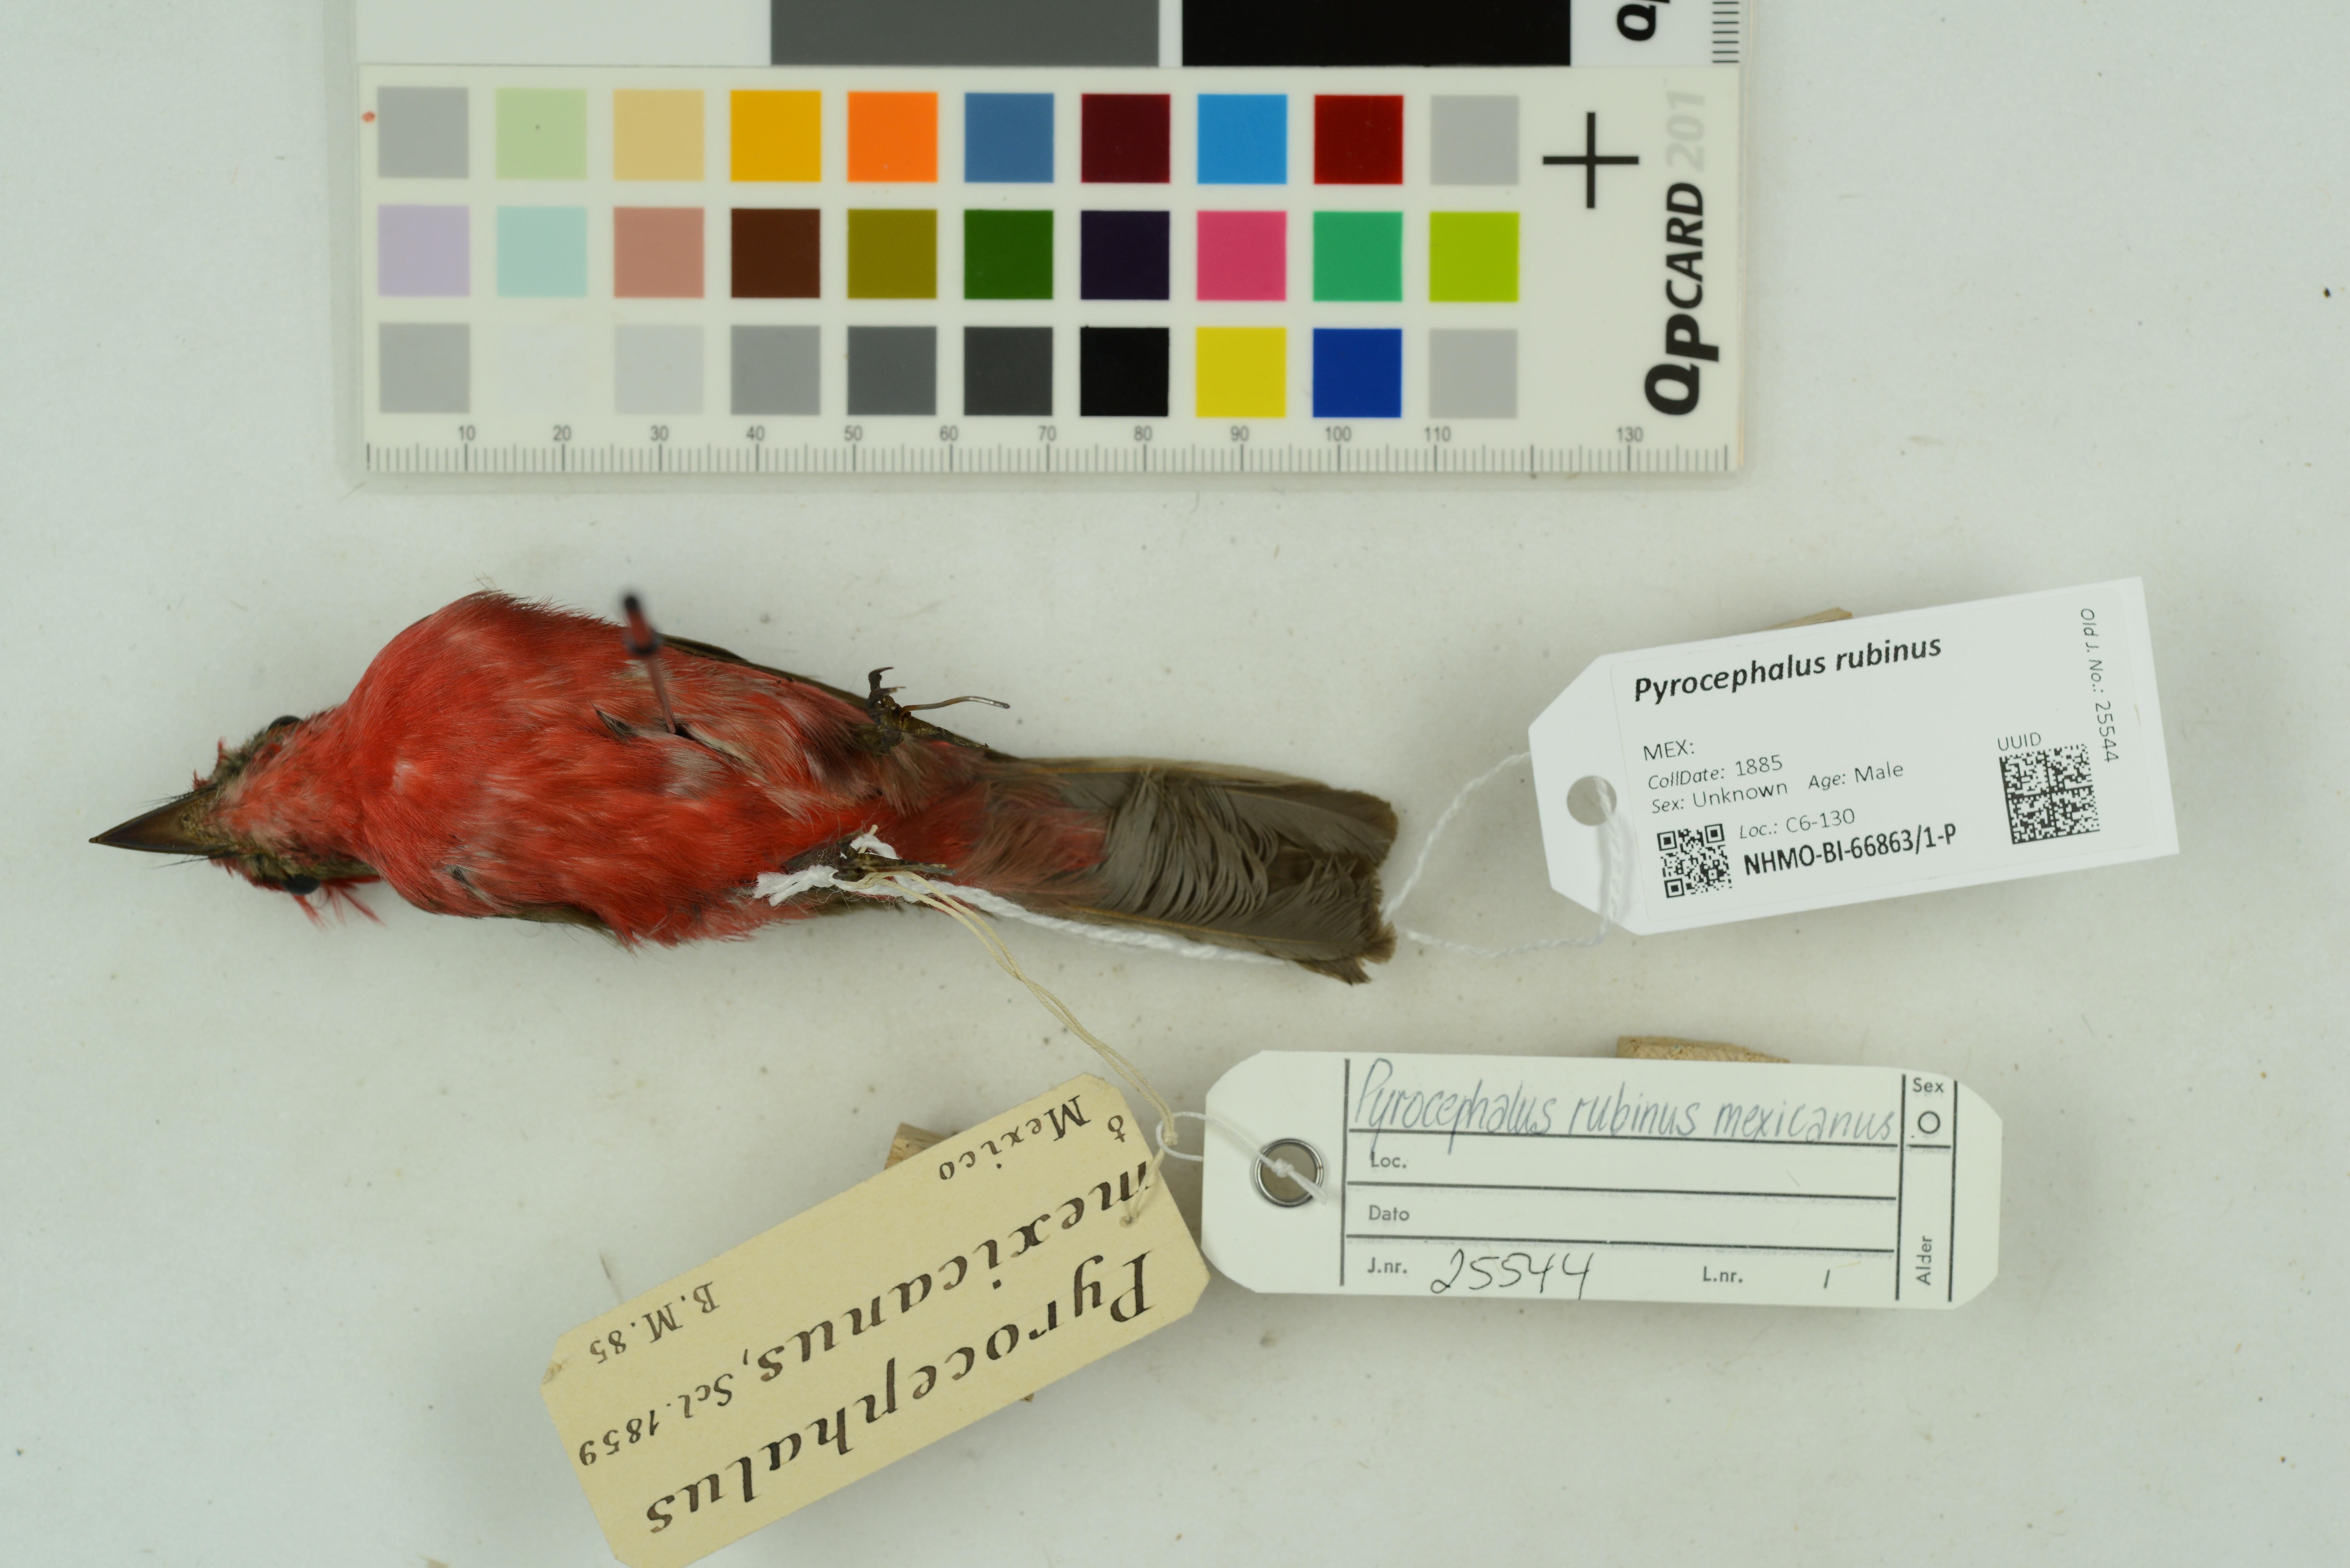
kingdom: Animalia
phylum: Chordata
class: Aves
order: Passeriformes
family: Tyrannidae
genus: Pyrocephalus
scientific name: Pyrocephalus obscurus
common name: Vermilion flycatcher
